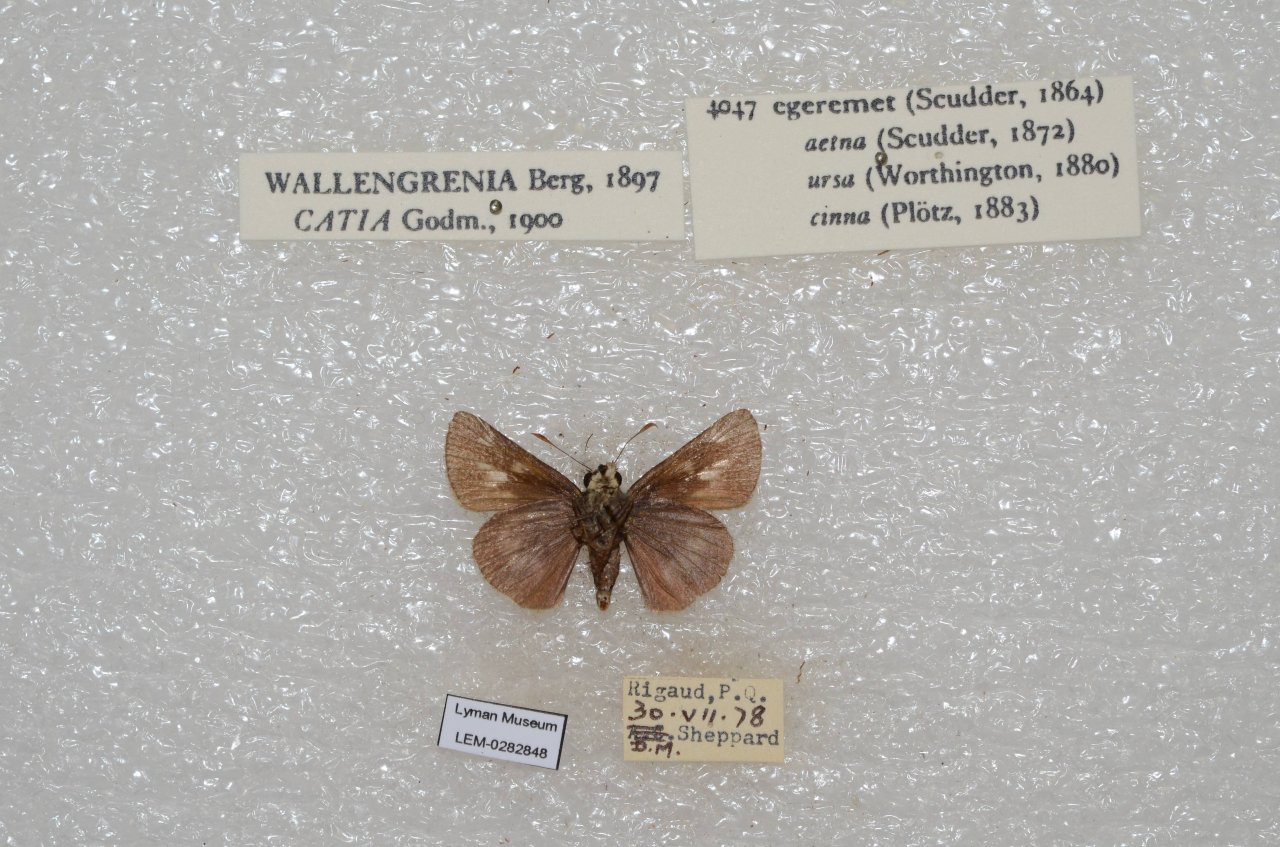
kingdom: Animalia
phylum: Arthropoda
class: Insecta
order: Lepidoptera
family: Hesperiidae
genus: Polites
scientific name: Polites egeremet
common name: Northern Broken-Dash
